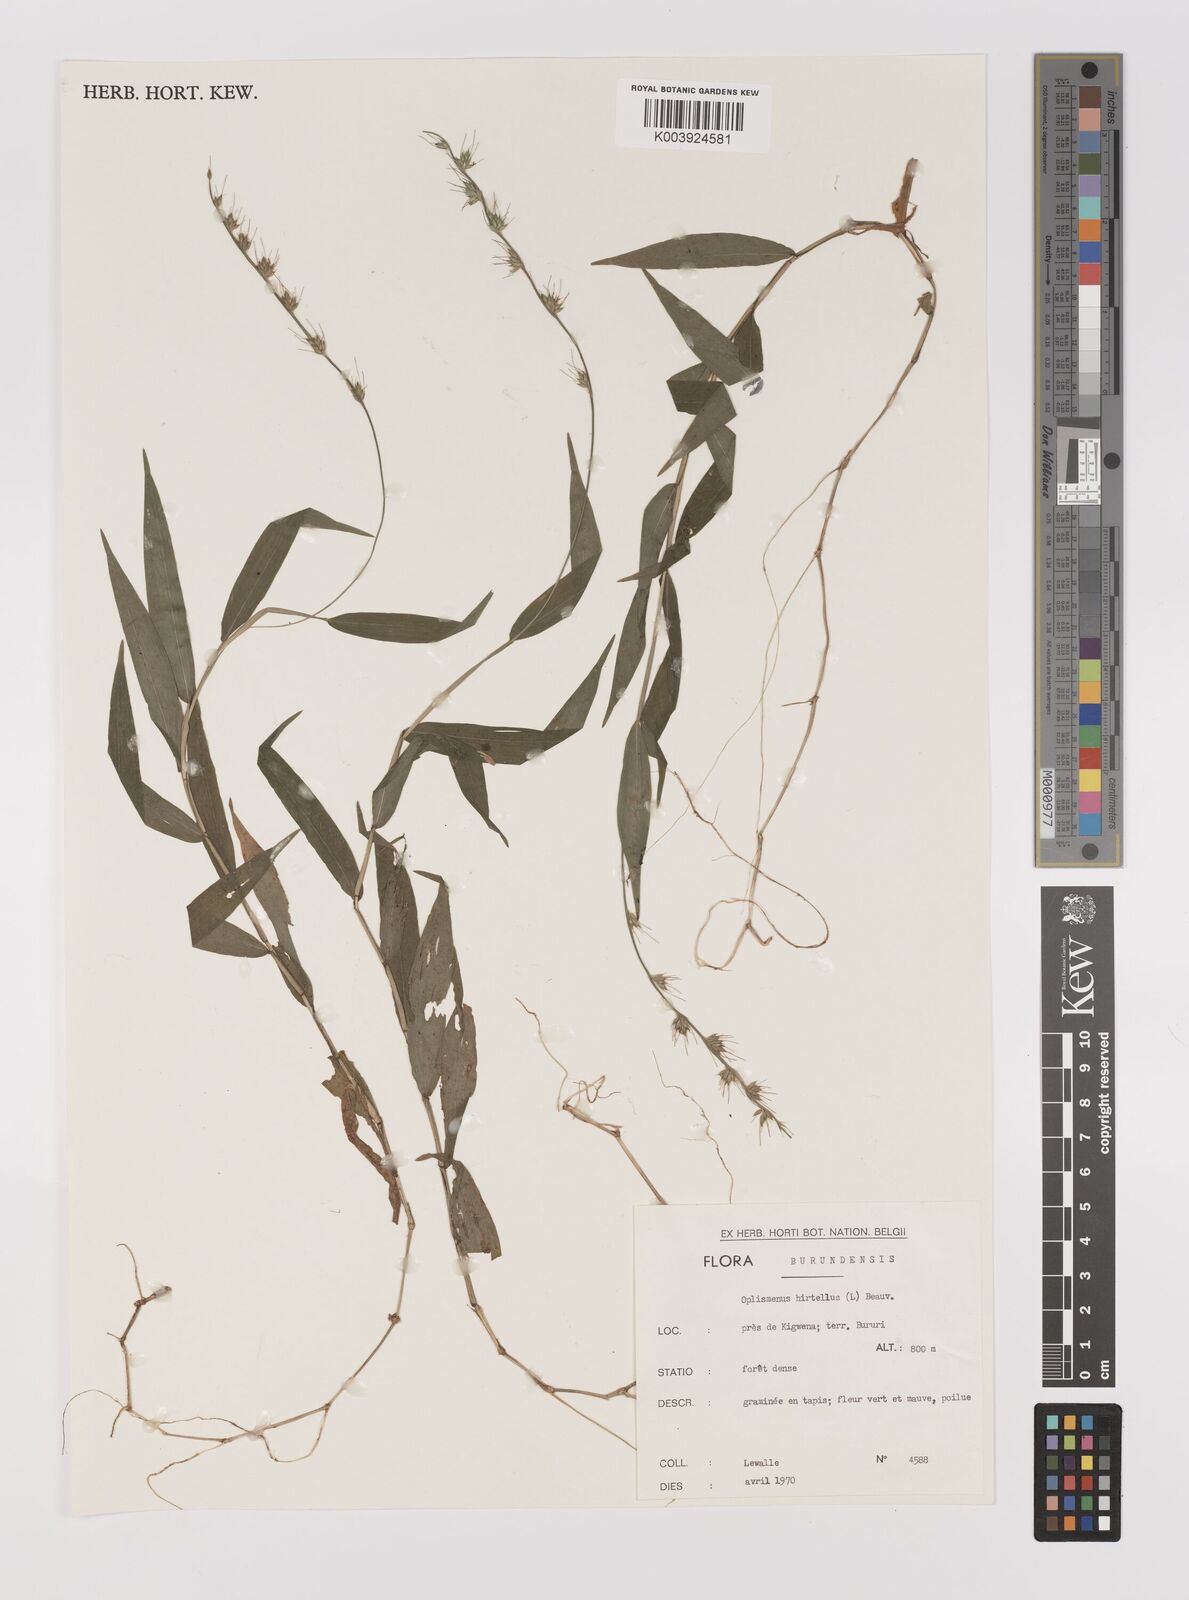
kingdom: Plantae
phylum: Tracheophyta
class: Liliopsida
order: Poales
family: Poaceae
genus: Oplismenus
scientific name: Oplismenus hirtellus
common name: Basketgrass
